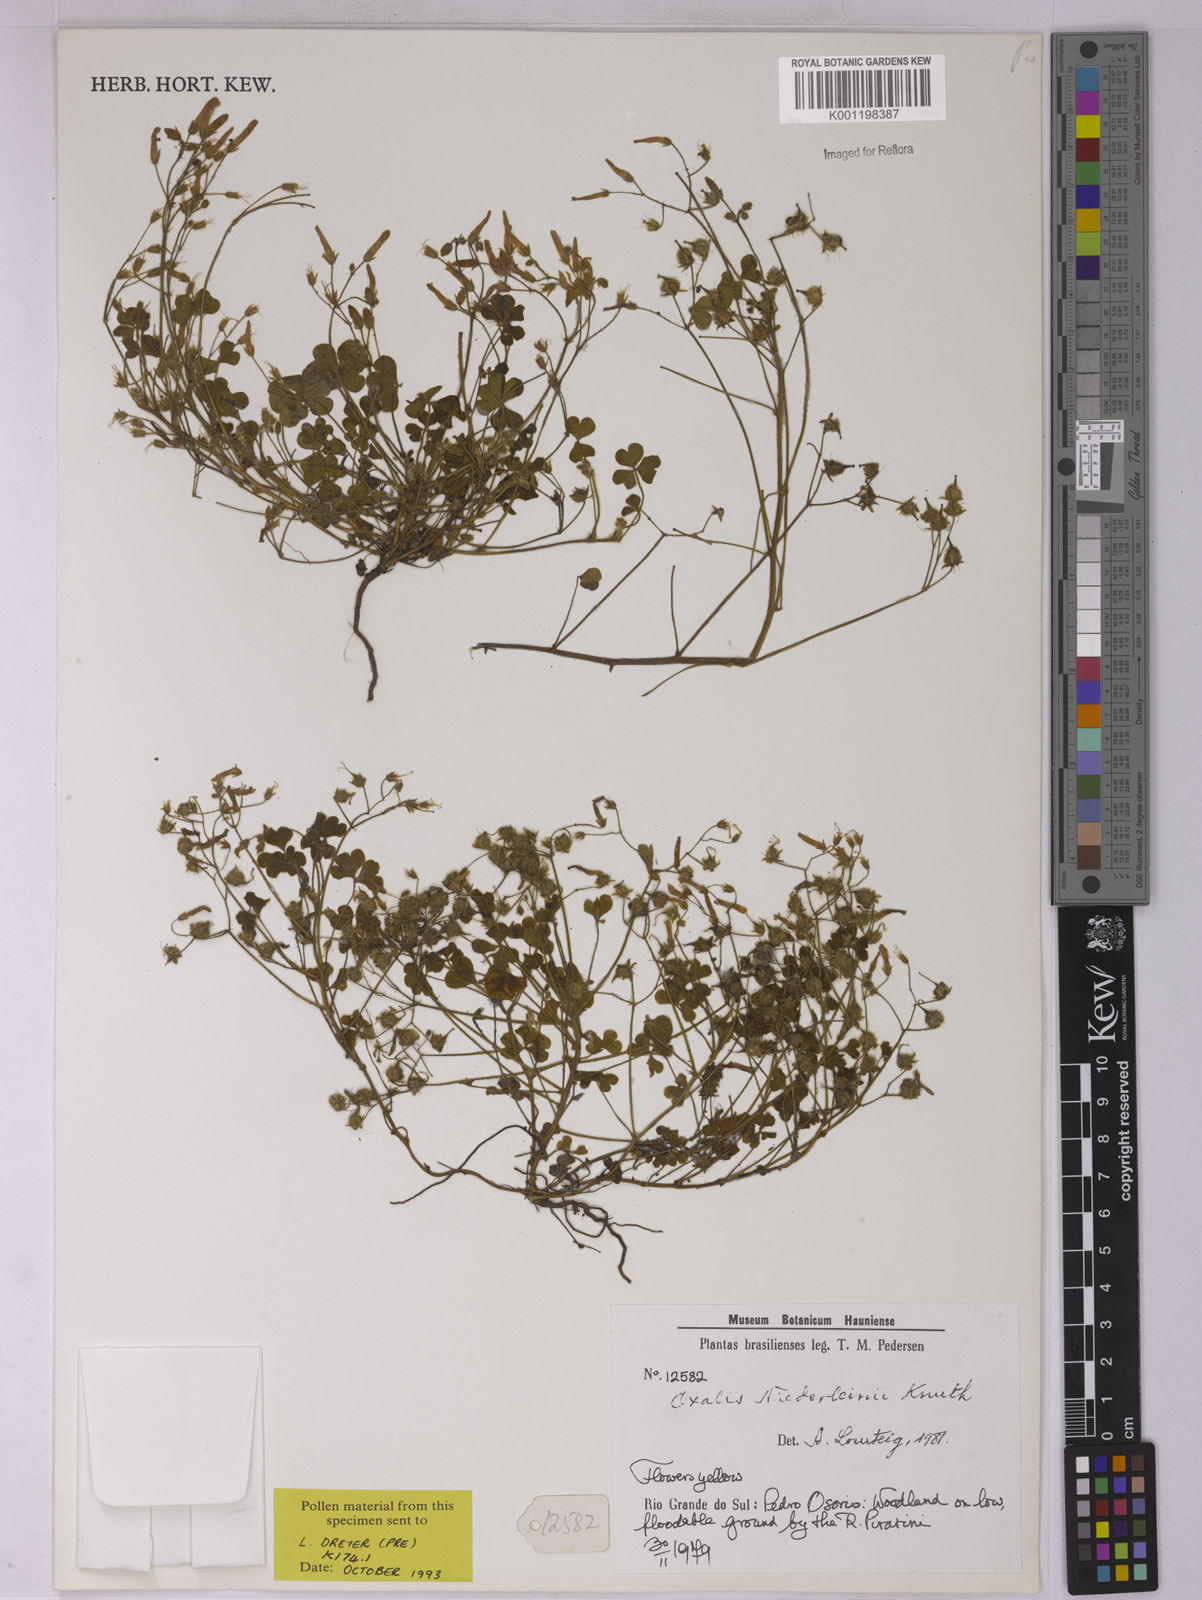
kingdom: Plantae
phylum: Tracheophyta
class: Magnoliopsida
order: Oxalidales
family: Oxalidaceae
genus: Oxalis
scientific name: Oxalis niederleinii
